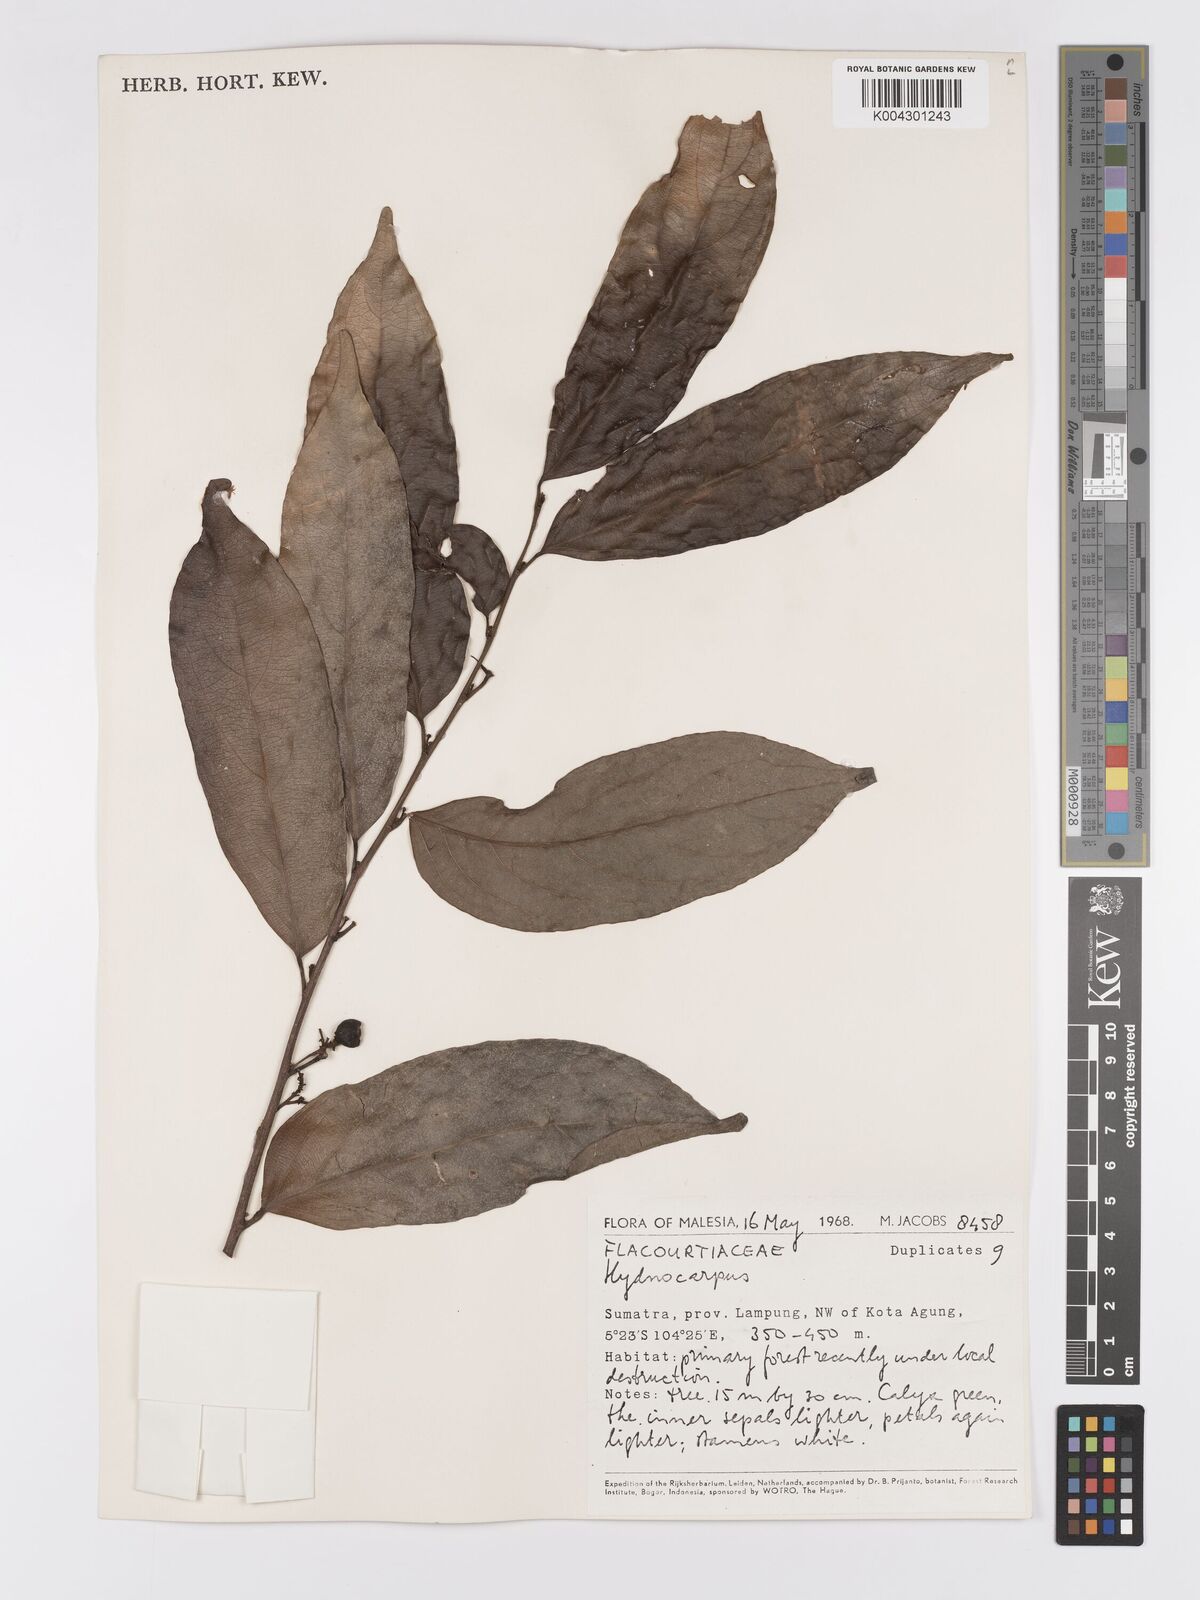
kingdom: Plantae
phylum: Tracheophyta
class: Magnoliopsida
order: Malpighiales
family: Achariaceae
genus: Hydnocarpus
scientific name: Hydnocarpus
